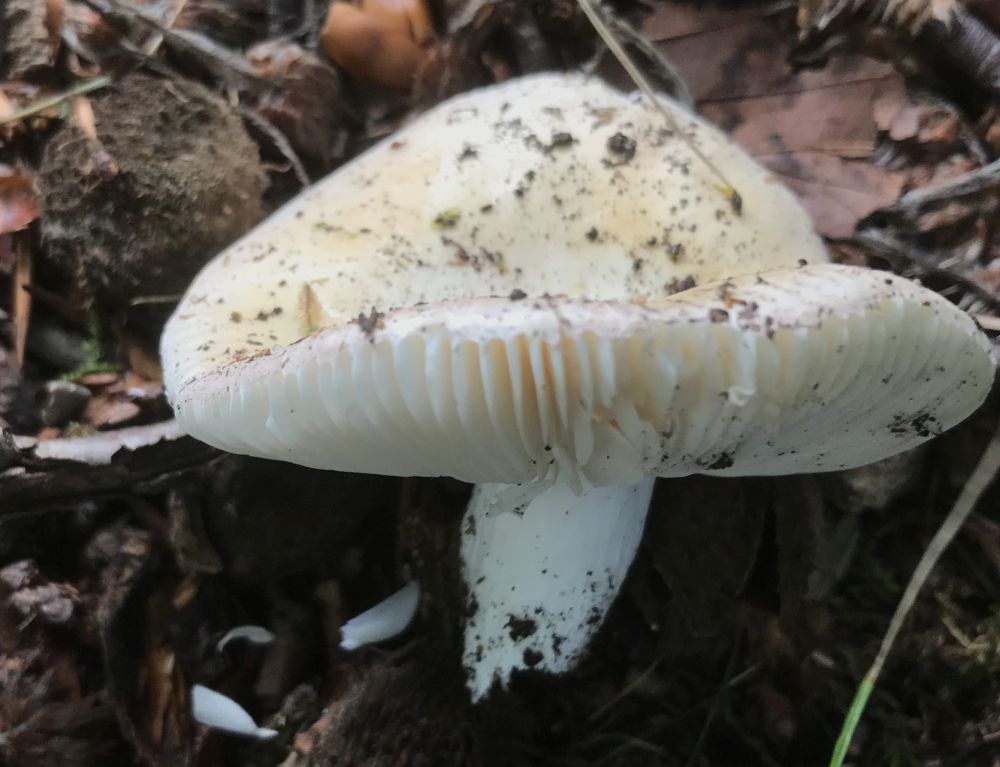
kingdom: Fungi
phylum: Basidiomycota
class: Agaricomycetes
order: Russulales
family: Russulaceae
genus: Russula
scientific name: Russula roseoaurantia
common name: kornet skørhat
